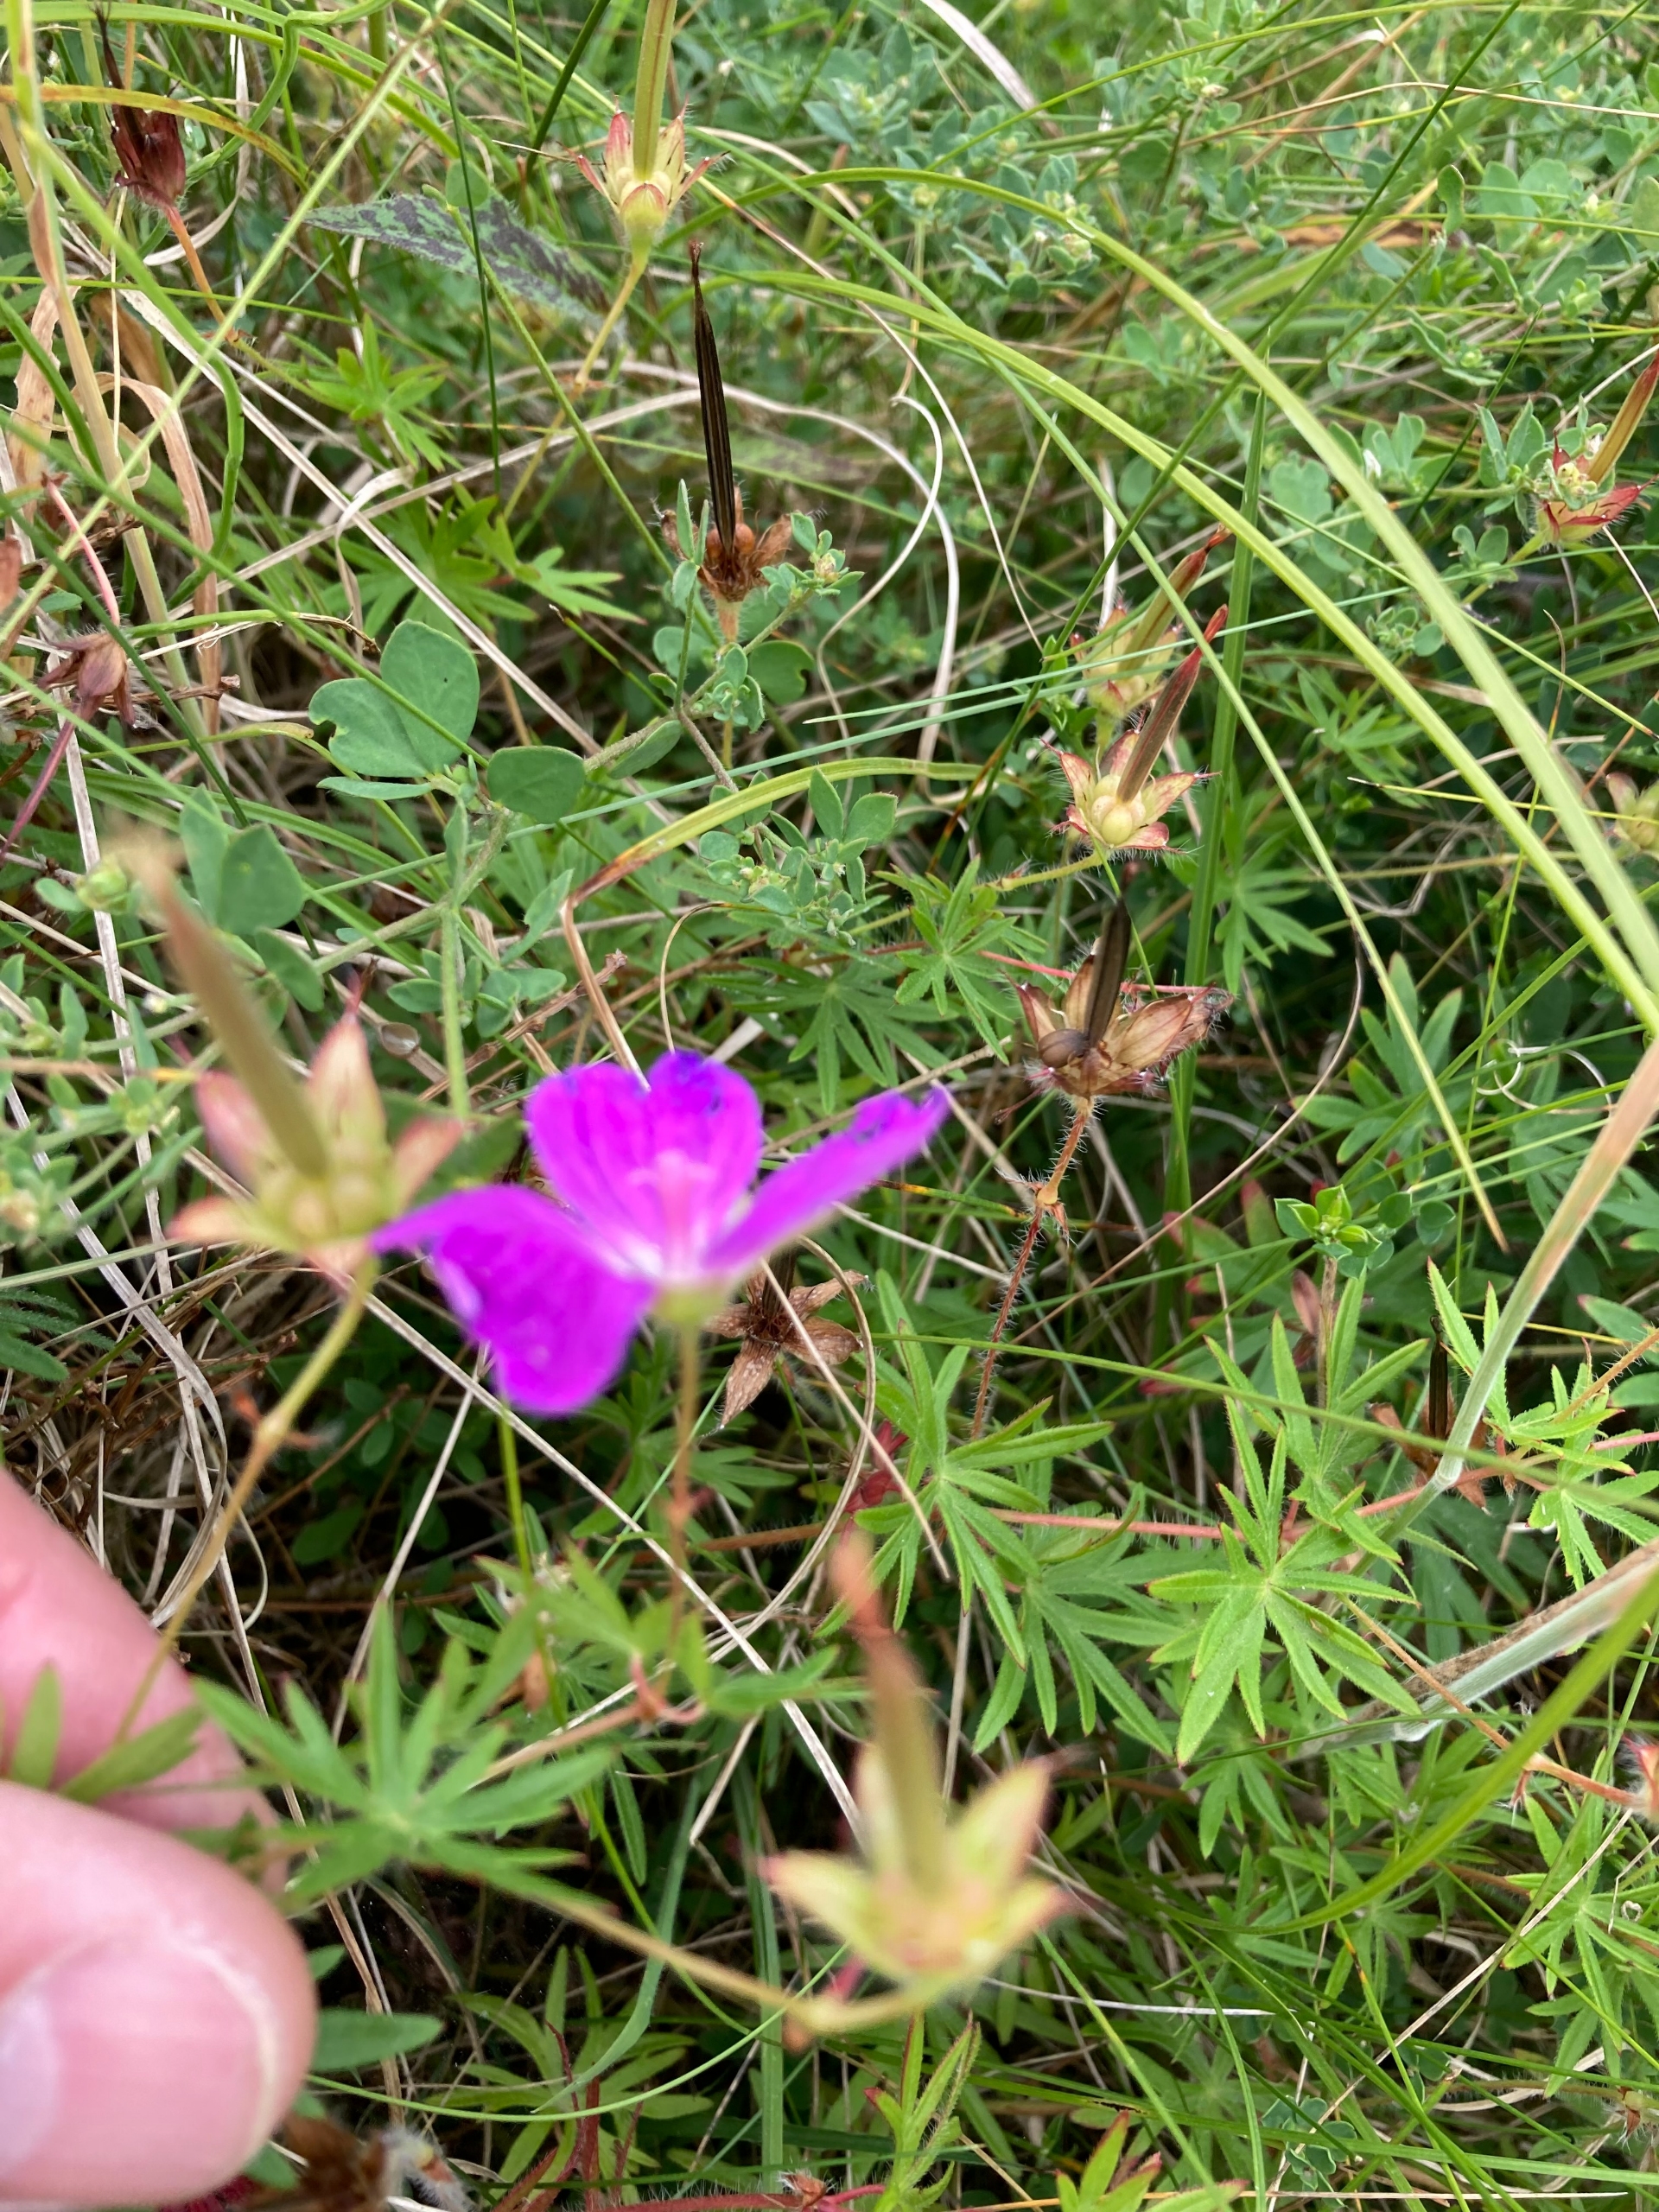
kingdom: Plantae
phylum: Tracheophyta
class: Magnoliopsida
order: Geraniales
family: Geraniaceae
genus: Geranium
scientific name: Geranium sanguineum
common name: Blodrød storkenæb
